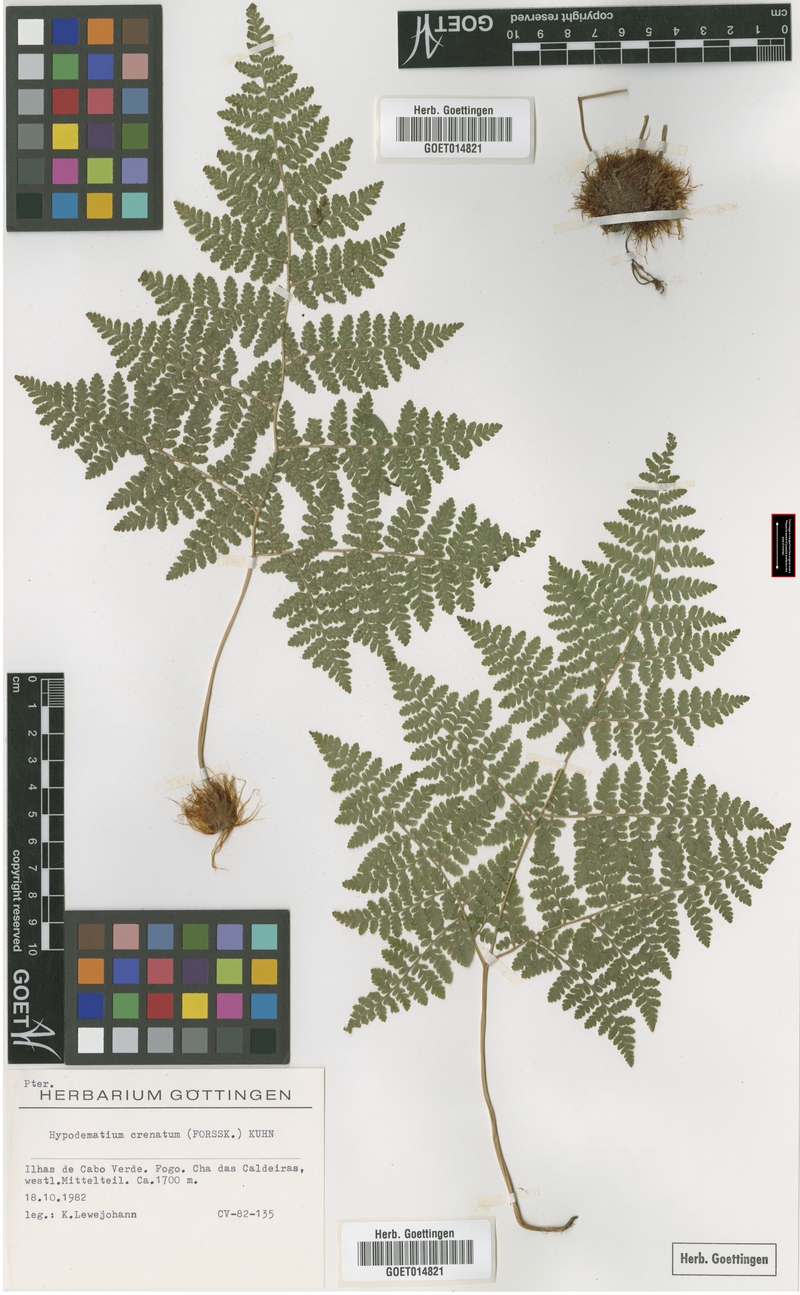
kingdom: Plantae
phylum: Tracheophyta
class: Polypodiopsida
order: Polypodiales
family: Hypodematiaceae
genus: Hypodematium
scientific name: Hypodematium chrysolepis
